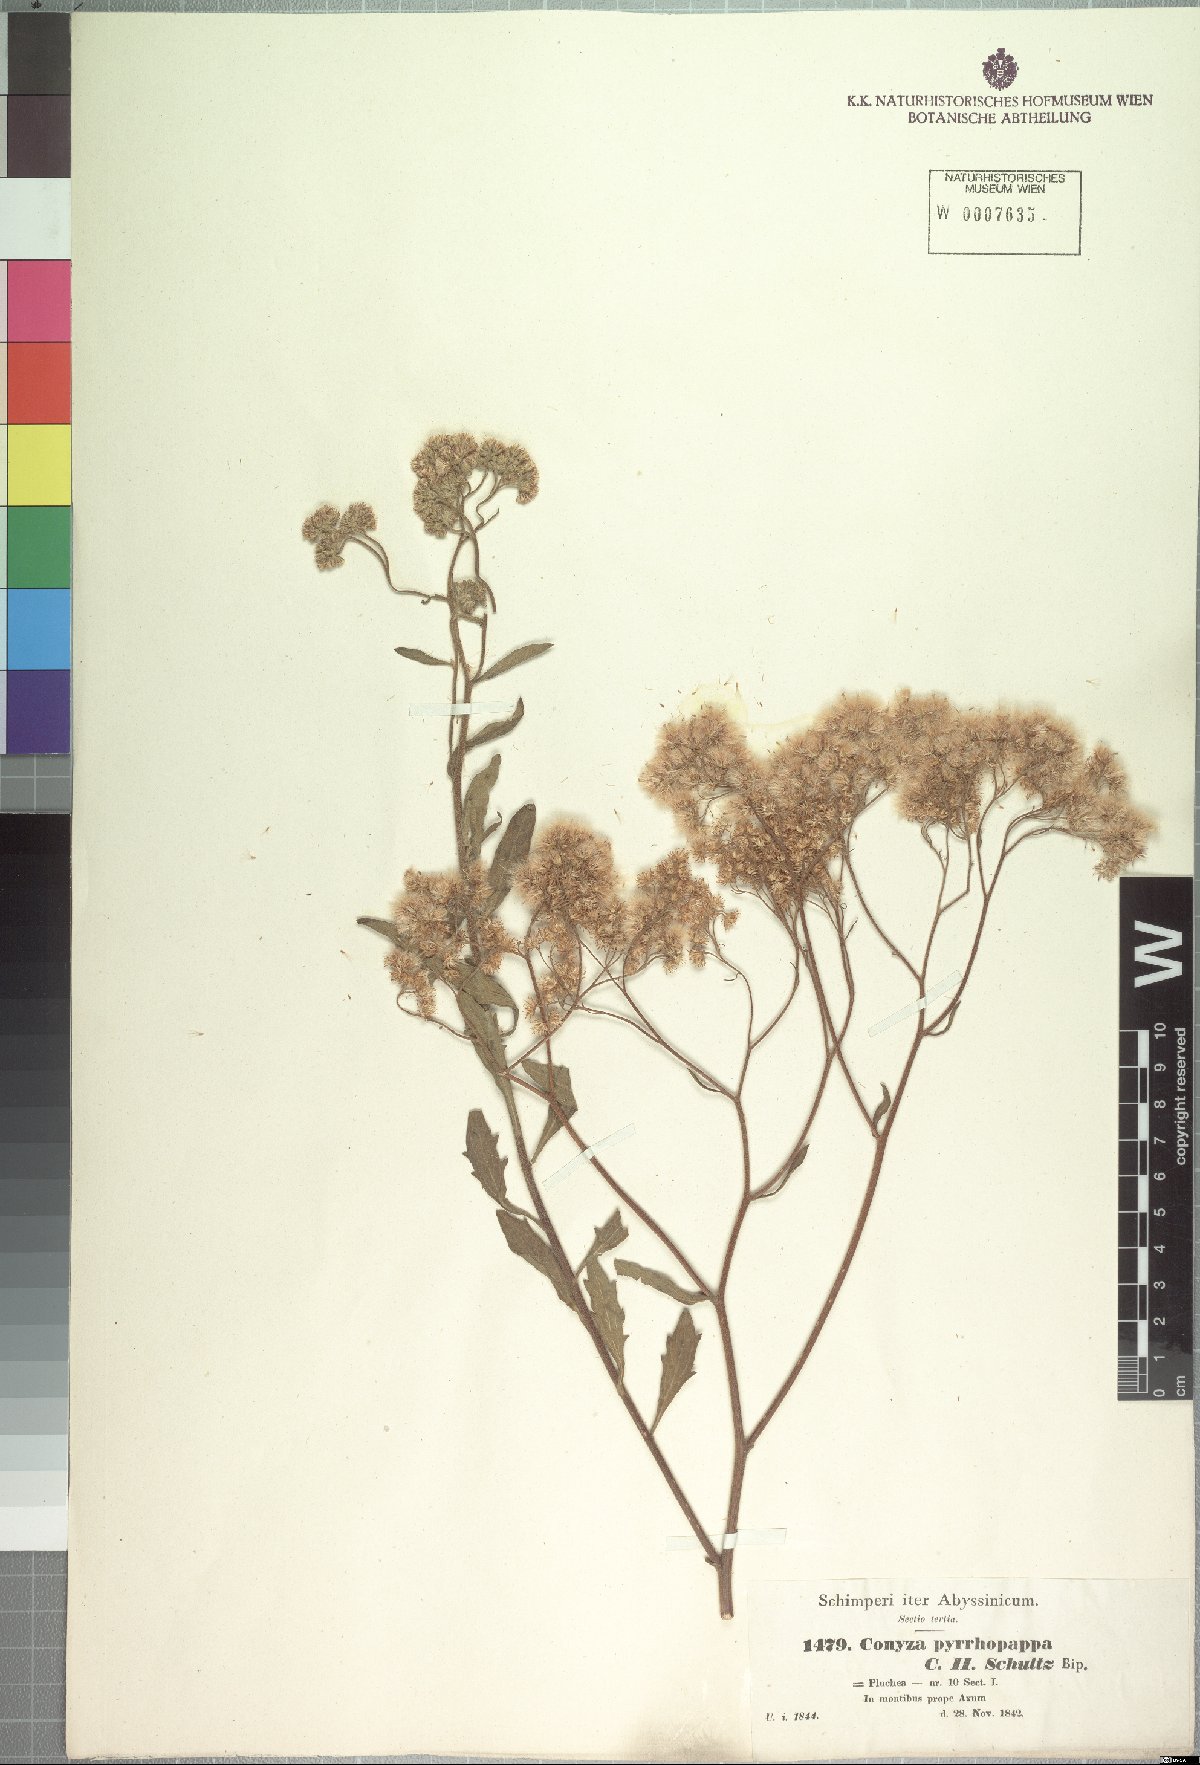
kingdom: Plantae
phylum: Tracheophyta
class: Magnoliopsida
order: Asterales
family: Asteraceae
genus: Microglossa
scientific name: Microglossa pyrrhopappa
